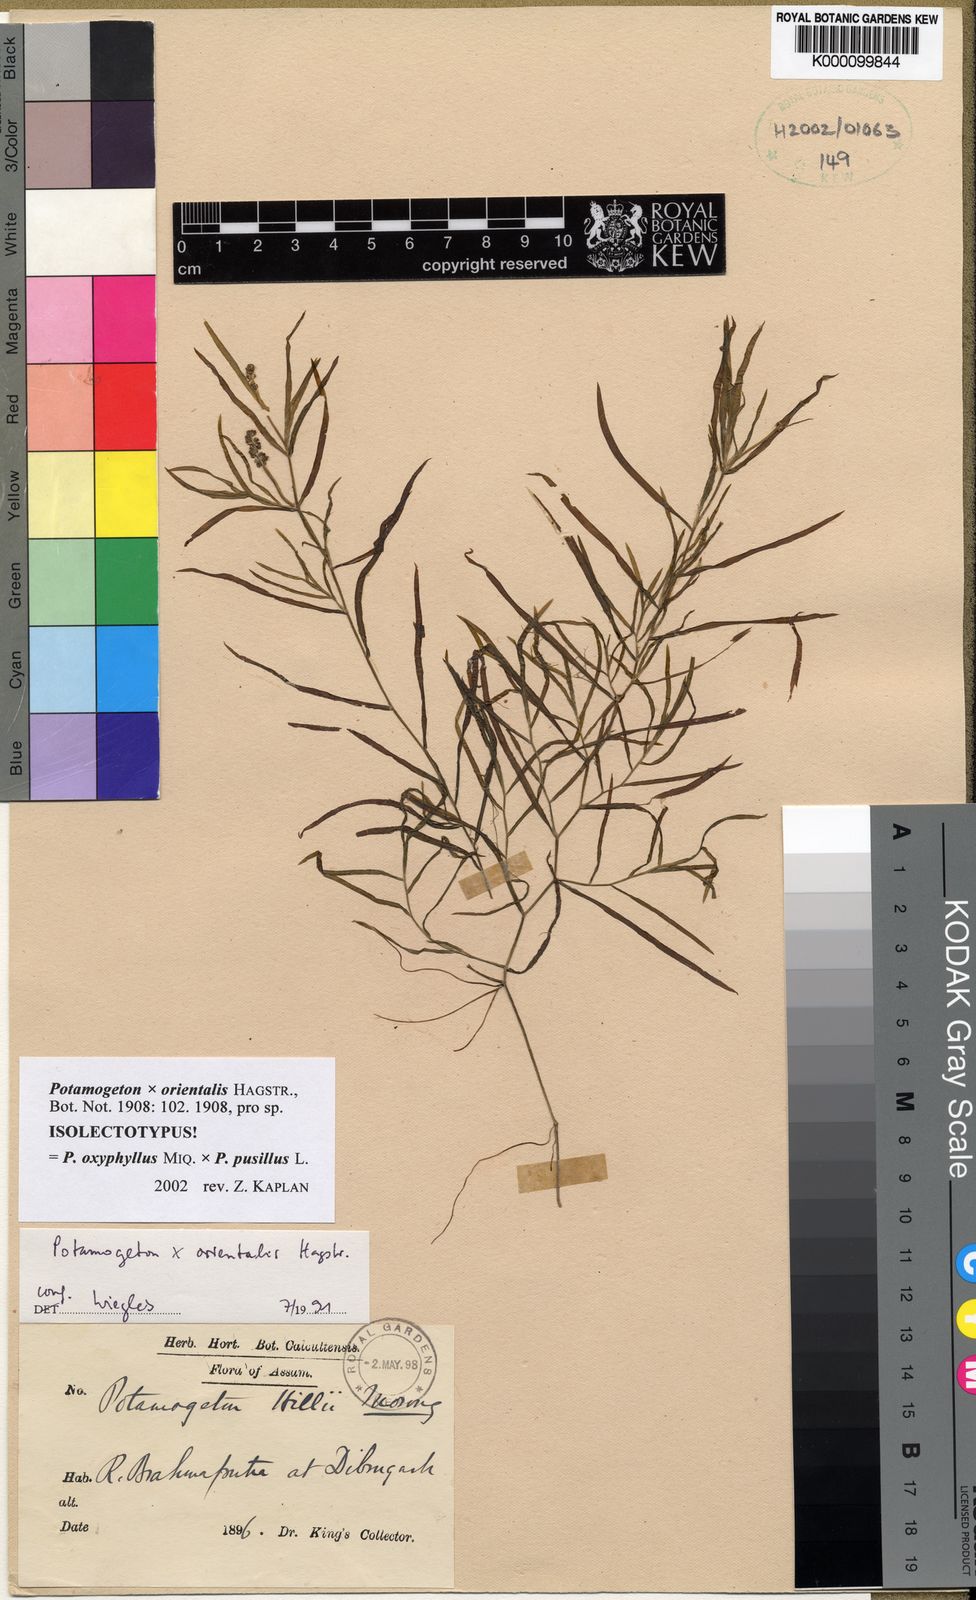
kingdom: Plantae
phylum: Tracheophyta
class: Liliopsida
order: Alismatales
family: Potamogetonaceae
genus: Potamogeton
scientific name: Potamogeton orientalis
